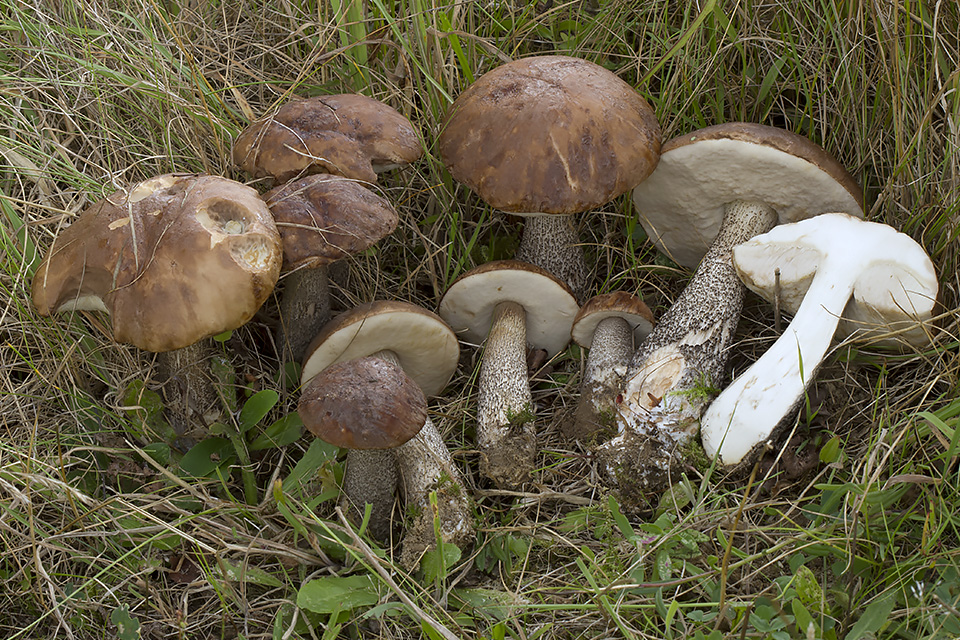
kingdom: Fungi
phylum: Basidiomycota
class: Agaricomycetes
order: Boletales
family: Boletaceae
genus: Leccinum
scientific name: Leccinum scabrum
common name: brun skælrørhat
